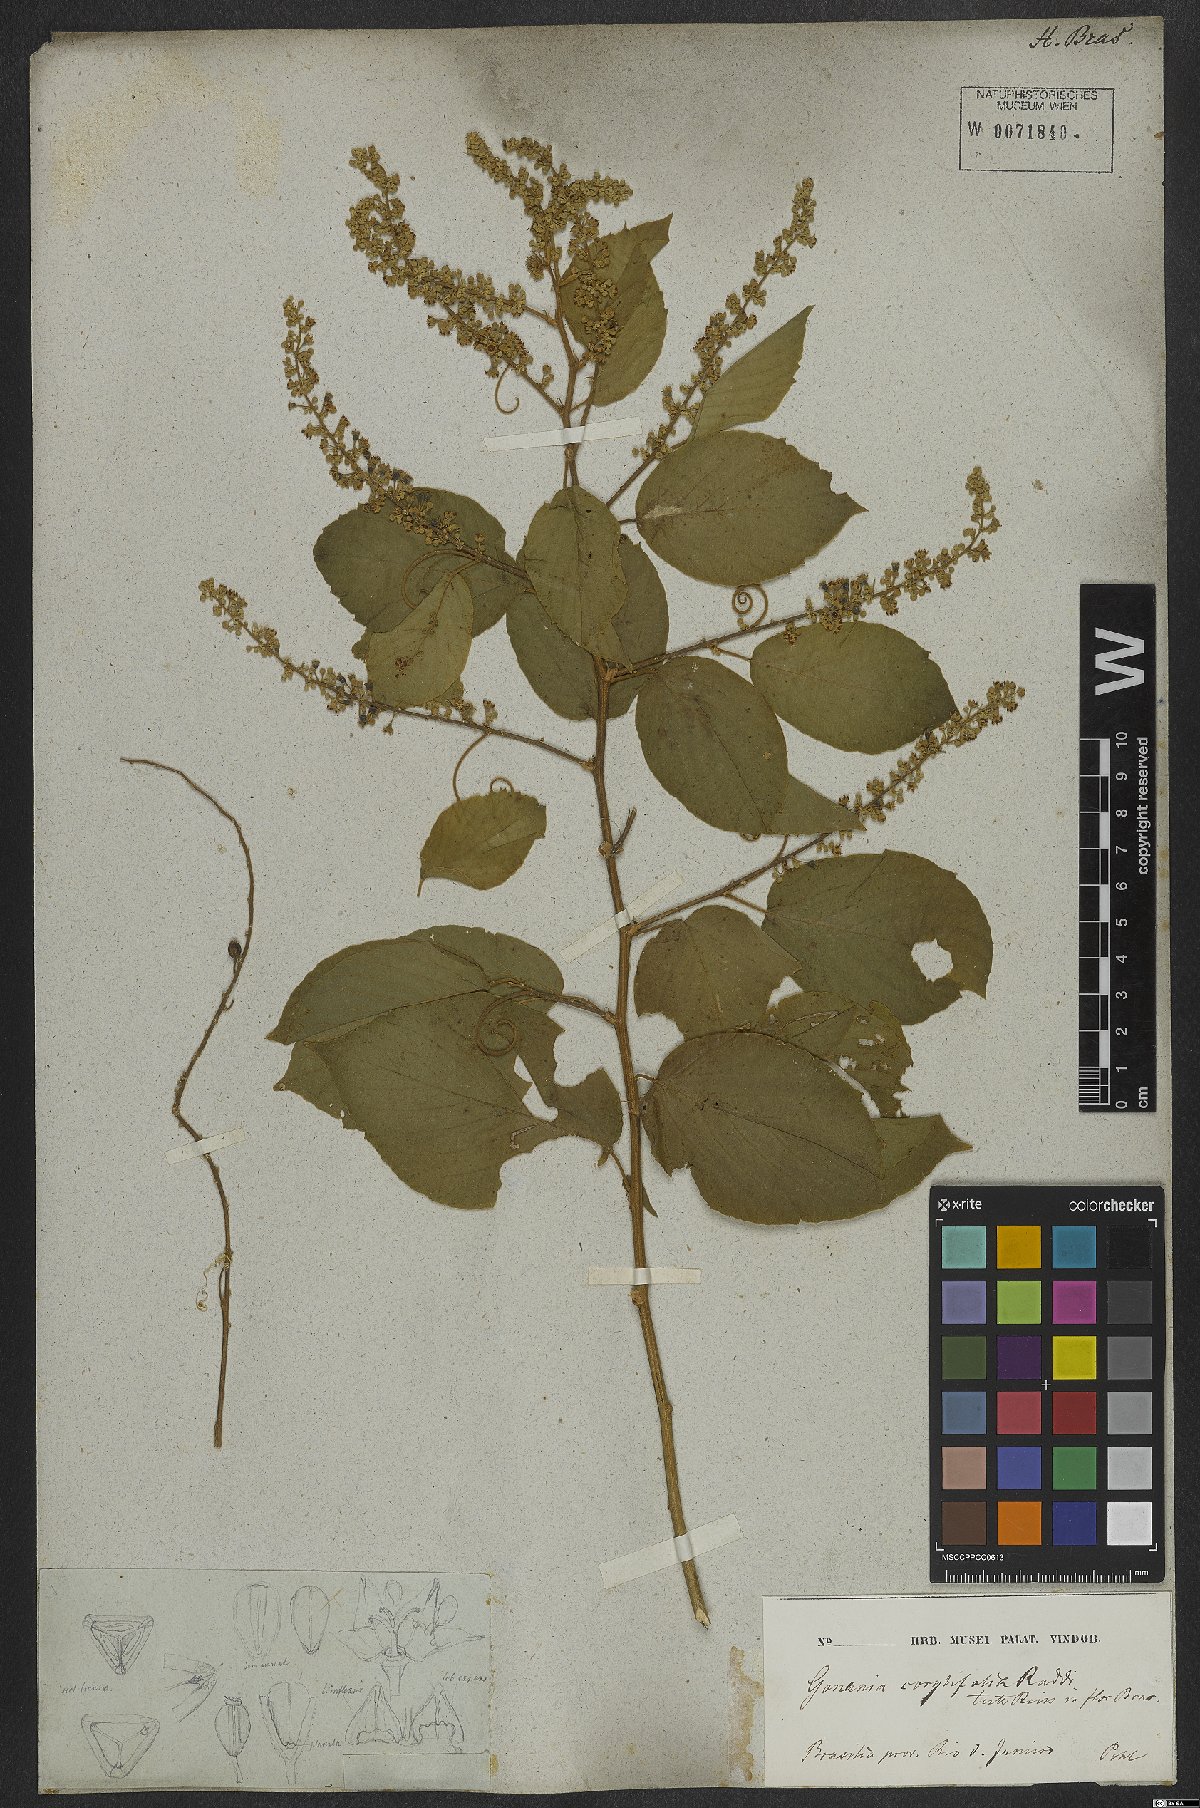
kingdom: Plantae
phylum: Tracheophyta
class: Magnoliopsida
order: Rosales
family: Rhamnaceae
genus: Gouania
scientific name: Gouania corylifolia
